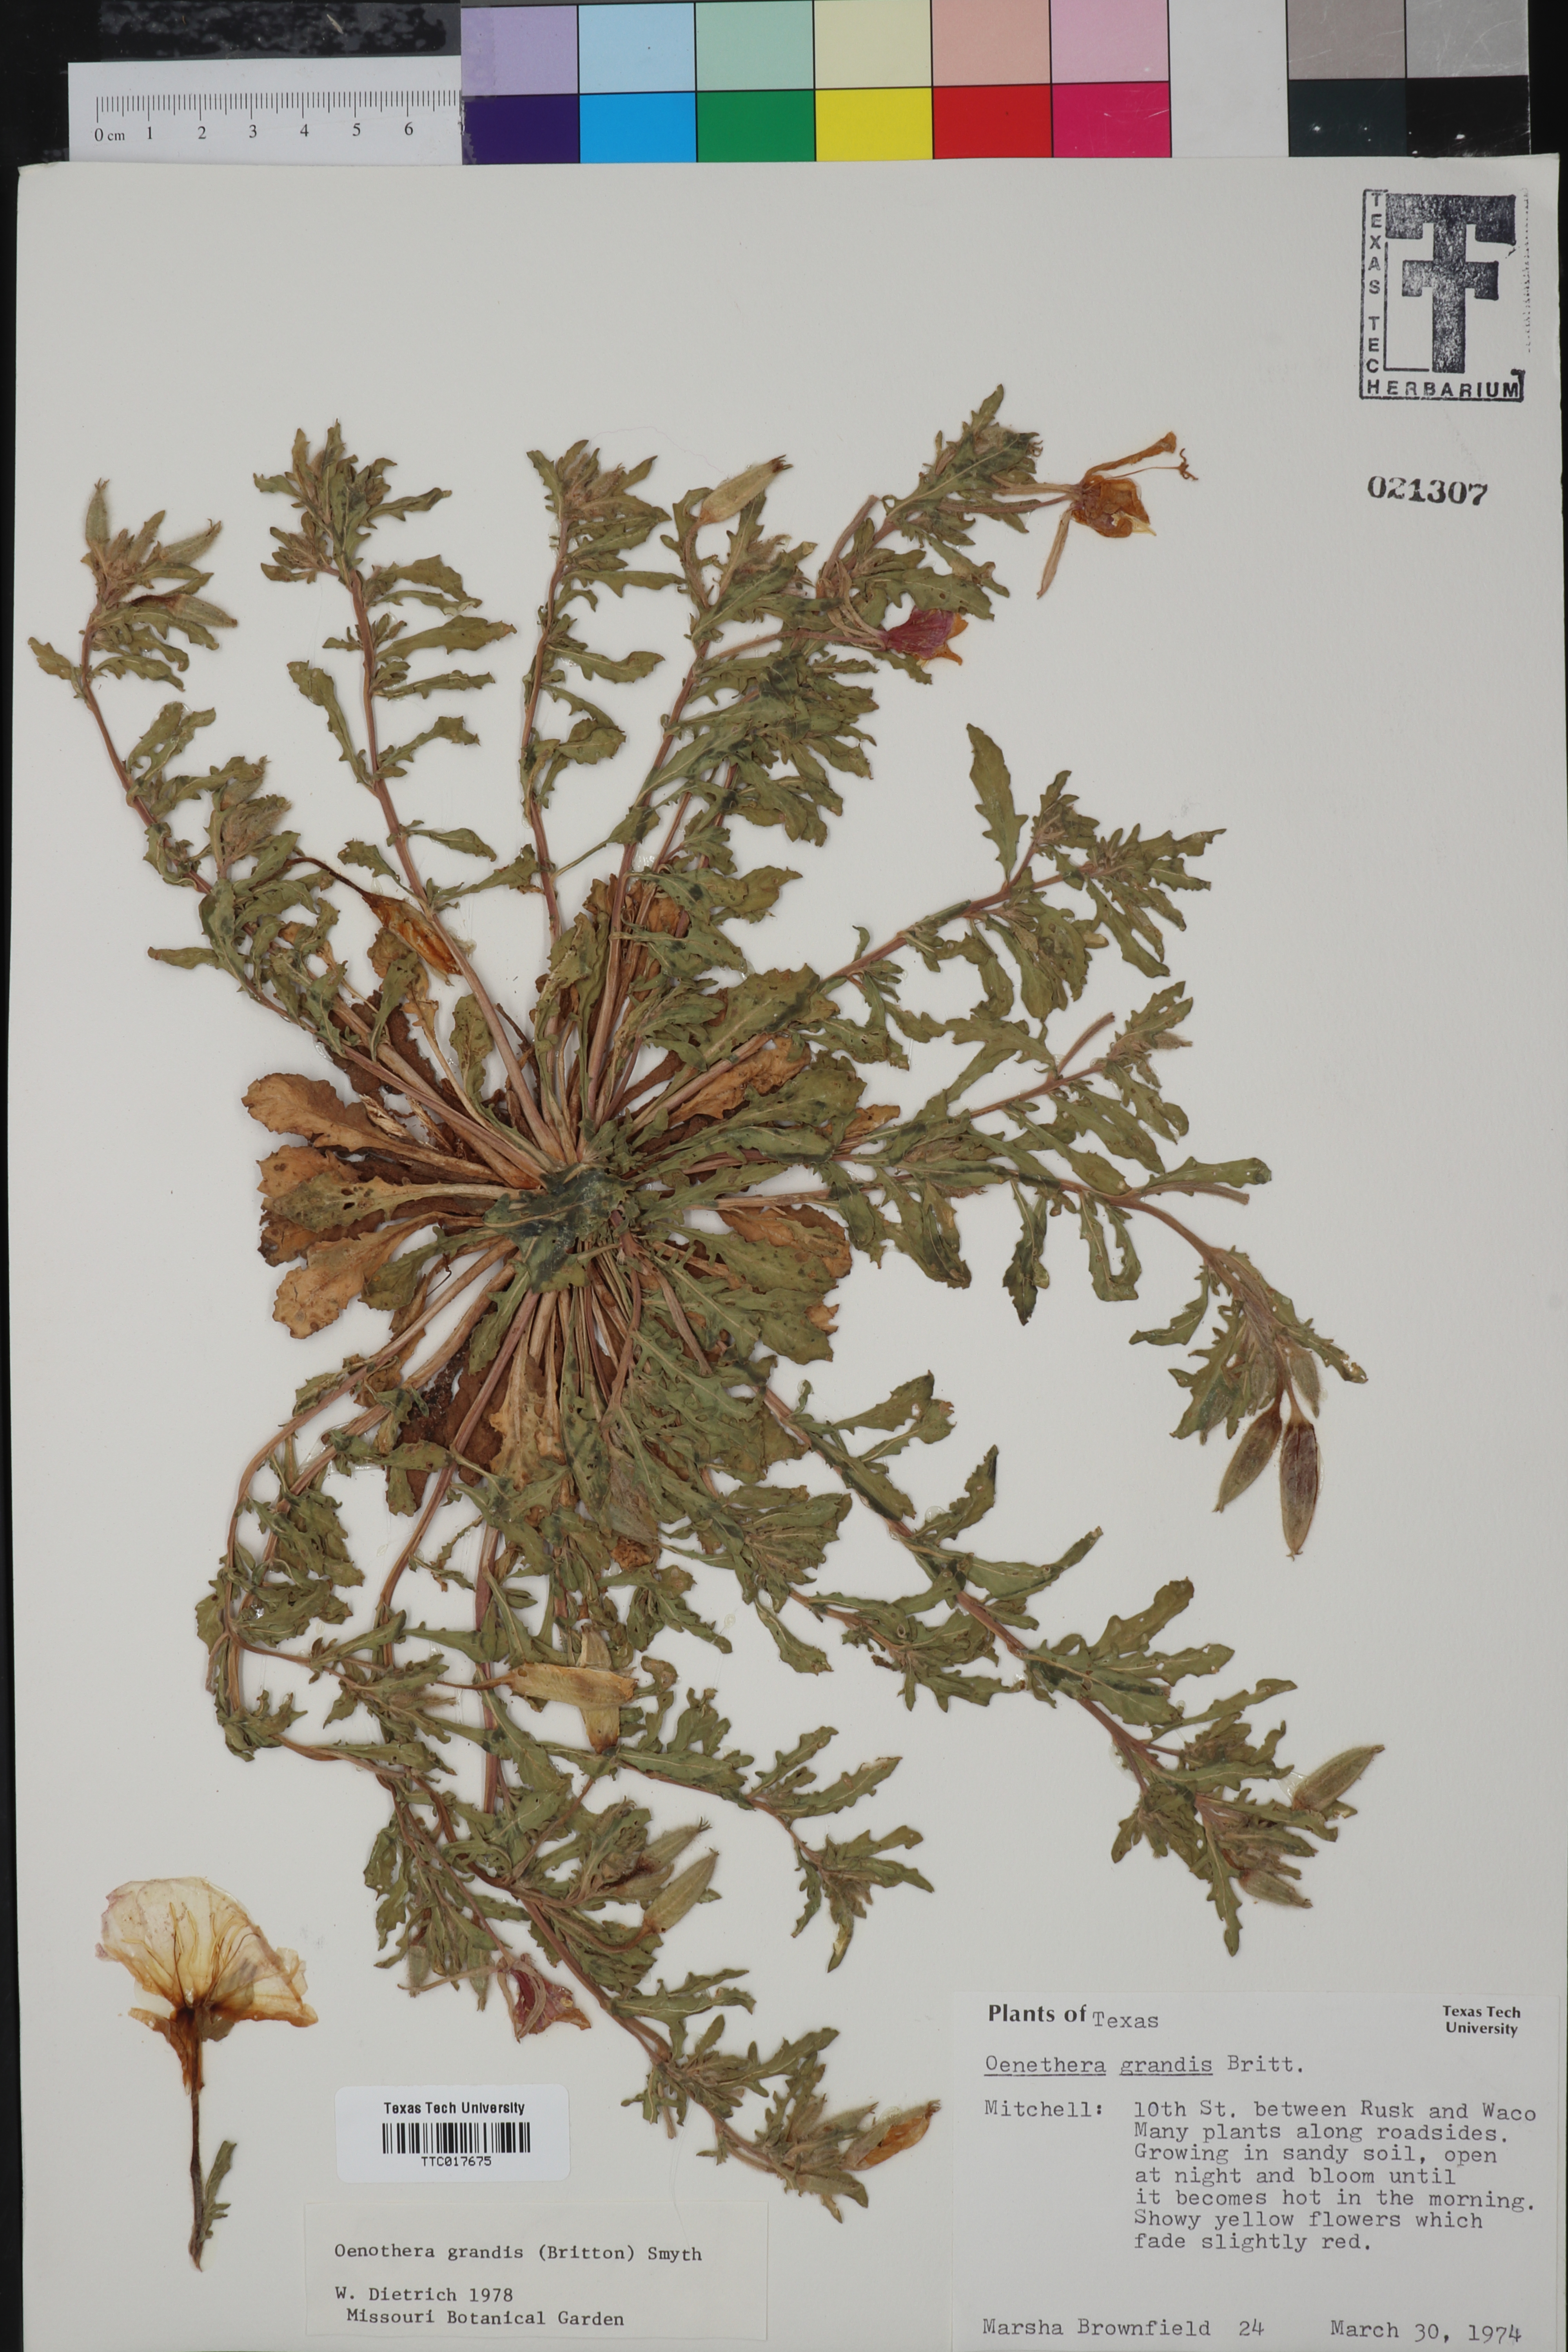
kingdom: Plantae
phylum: Tracheophyta
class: Magnoliopsida
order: Myrtales
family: Onagraceae
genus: Oenothera
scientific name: Oenothera grandis
